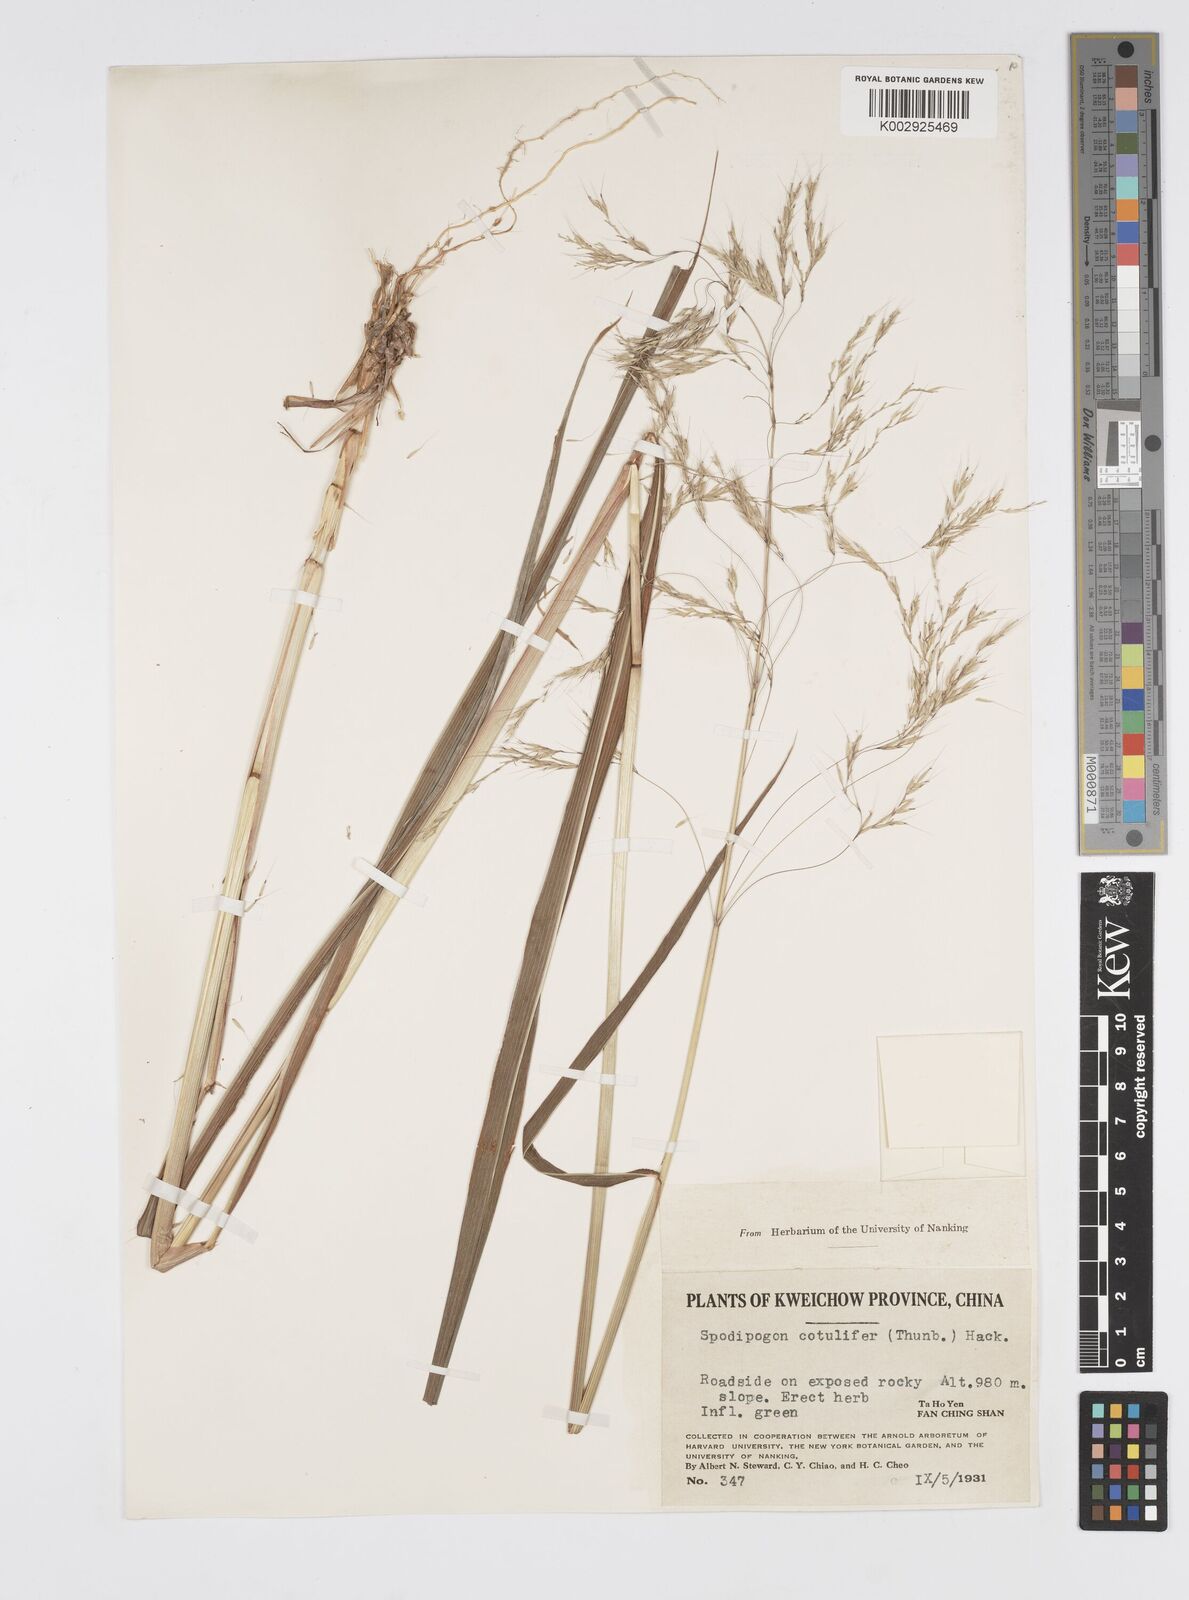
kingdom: Plantae
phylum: Tracheophyta
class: Liliopsida
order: Poales
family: Poaceae
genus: Spodiopogon
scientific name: Spodiopogon cotulifer
